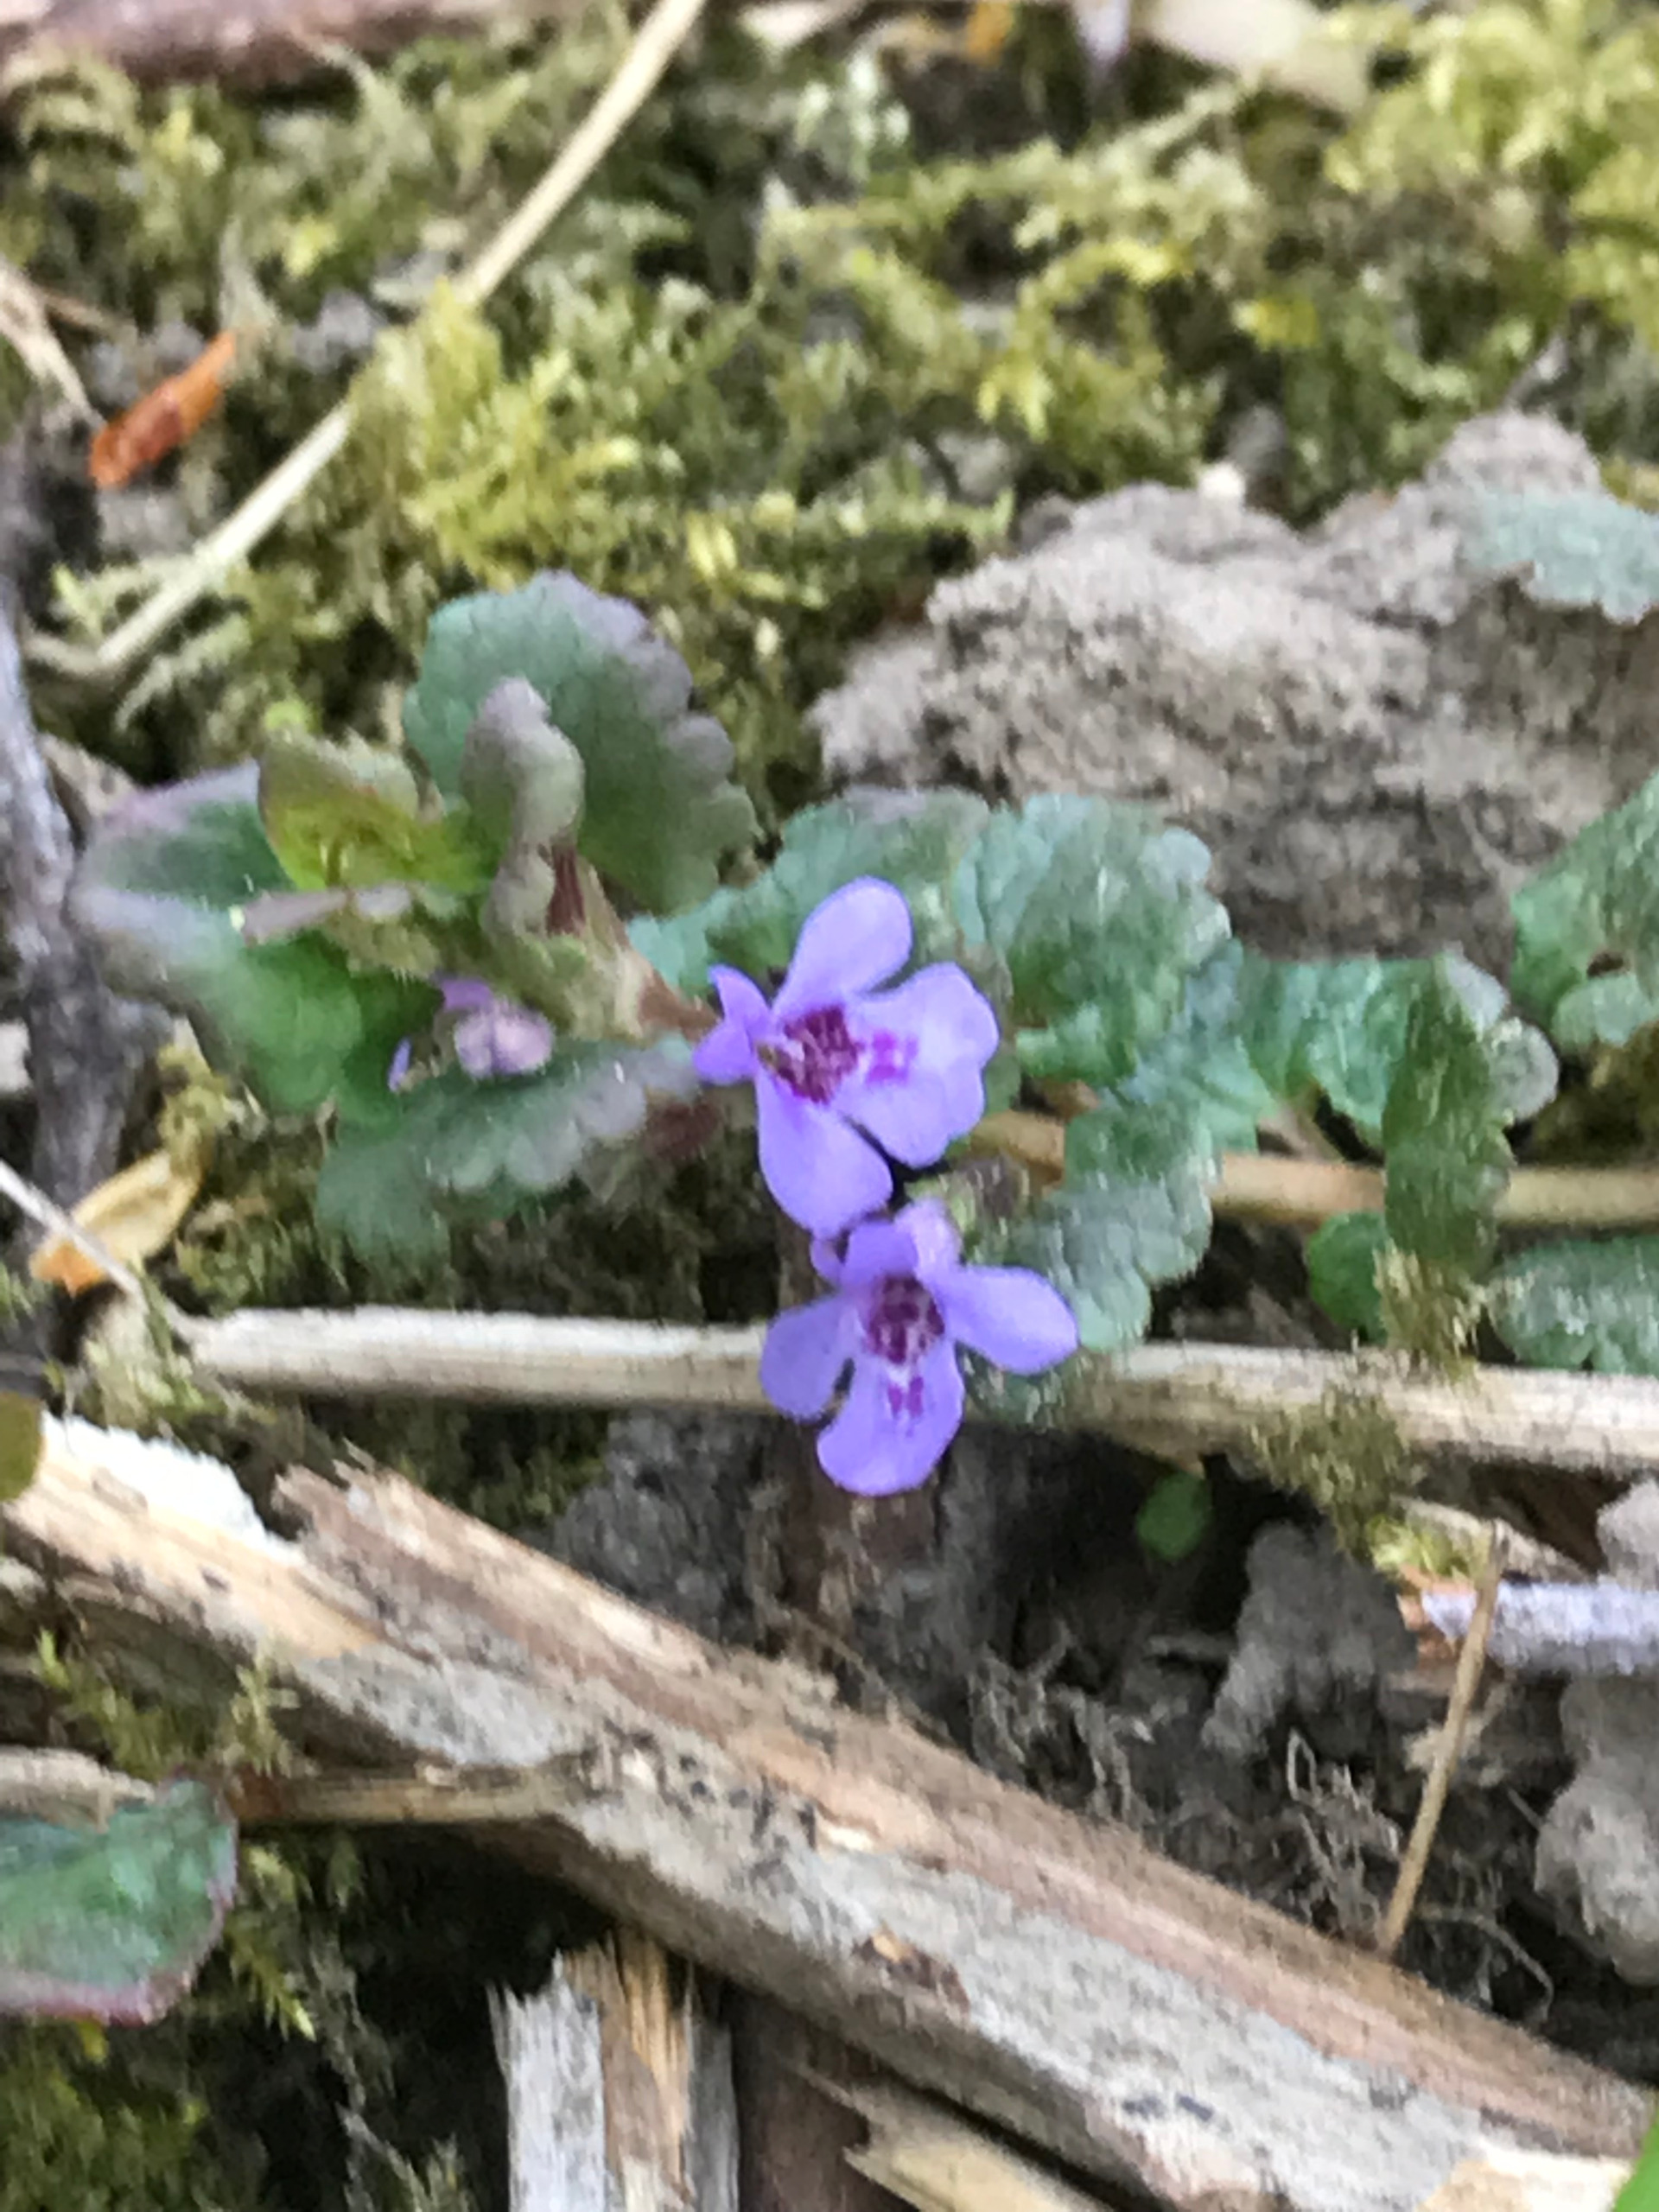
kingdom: Plantae
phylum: Tracheophyta
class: Magnoliopsida
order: Lamiales
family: Lamiaceae
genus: Glechoma
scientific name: Glechoma hederacea
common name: Korsknap
